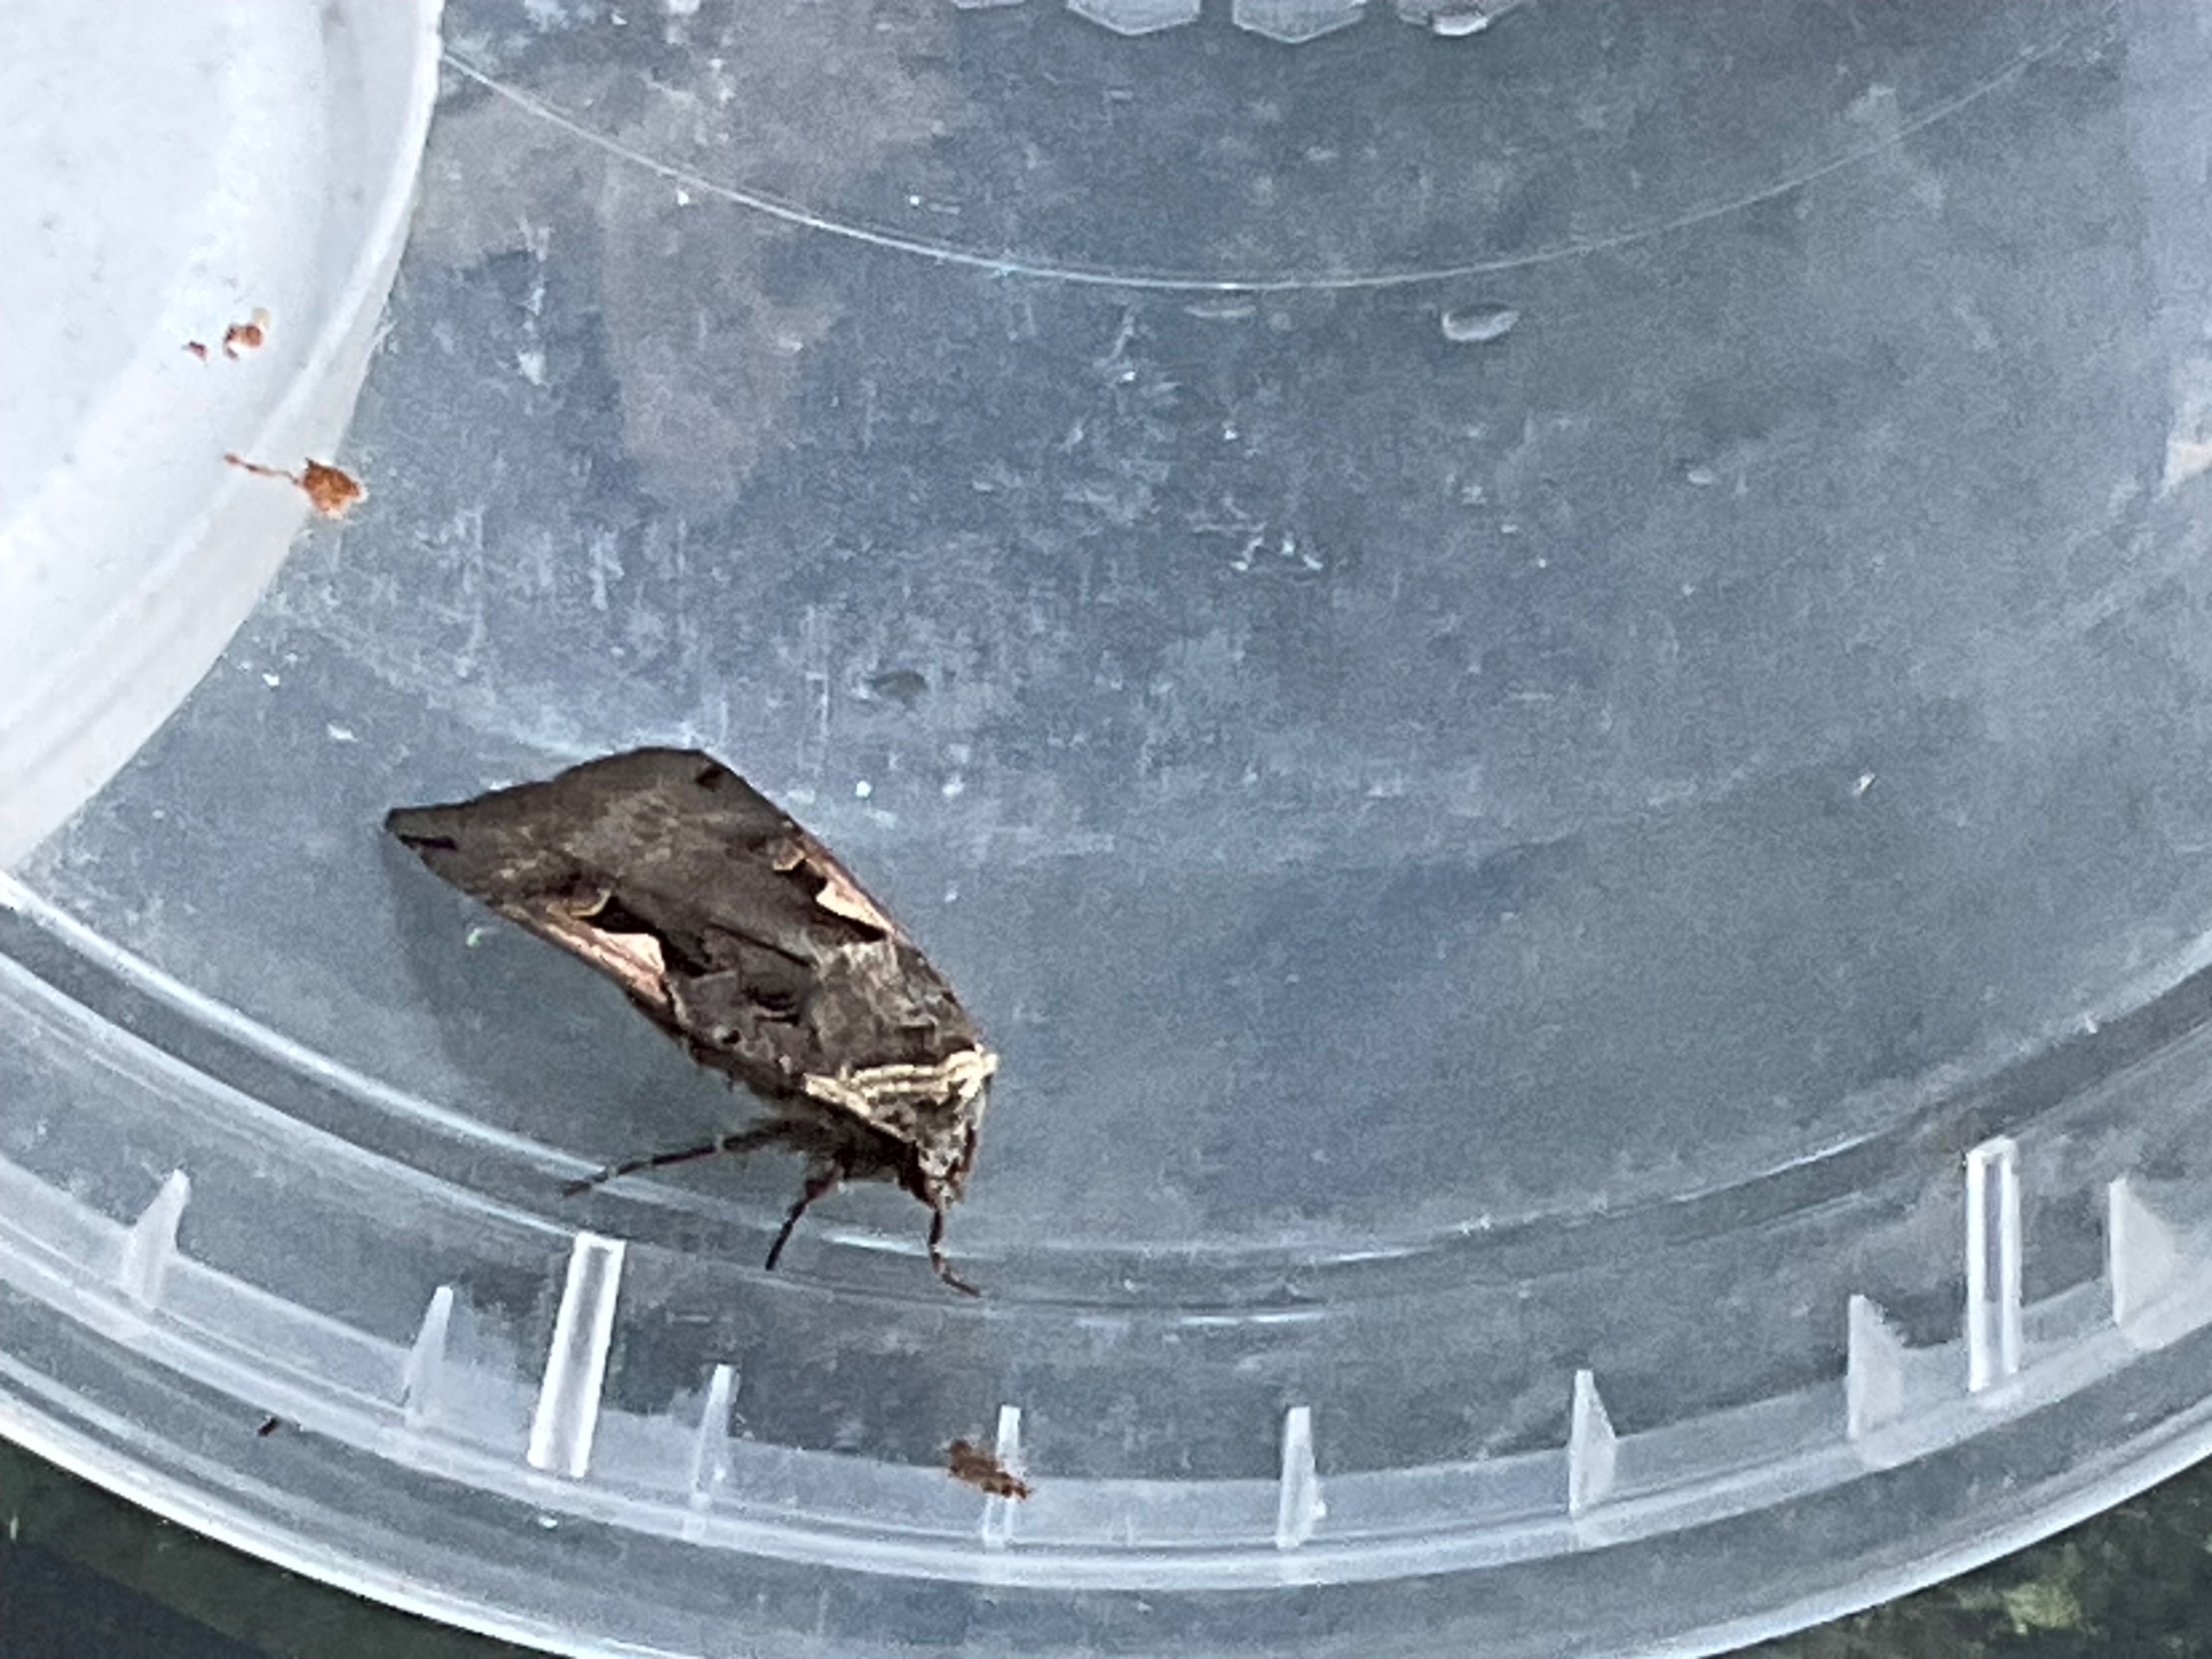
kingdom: Animalia
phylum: Arthropoda
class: Insecta
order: Lepidoptera
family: Noctuidae
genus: Xestia
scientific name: Xestia c-nigrum
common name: Det sorte c
